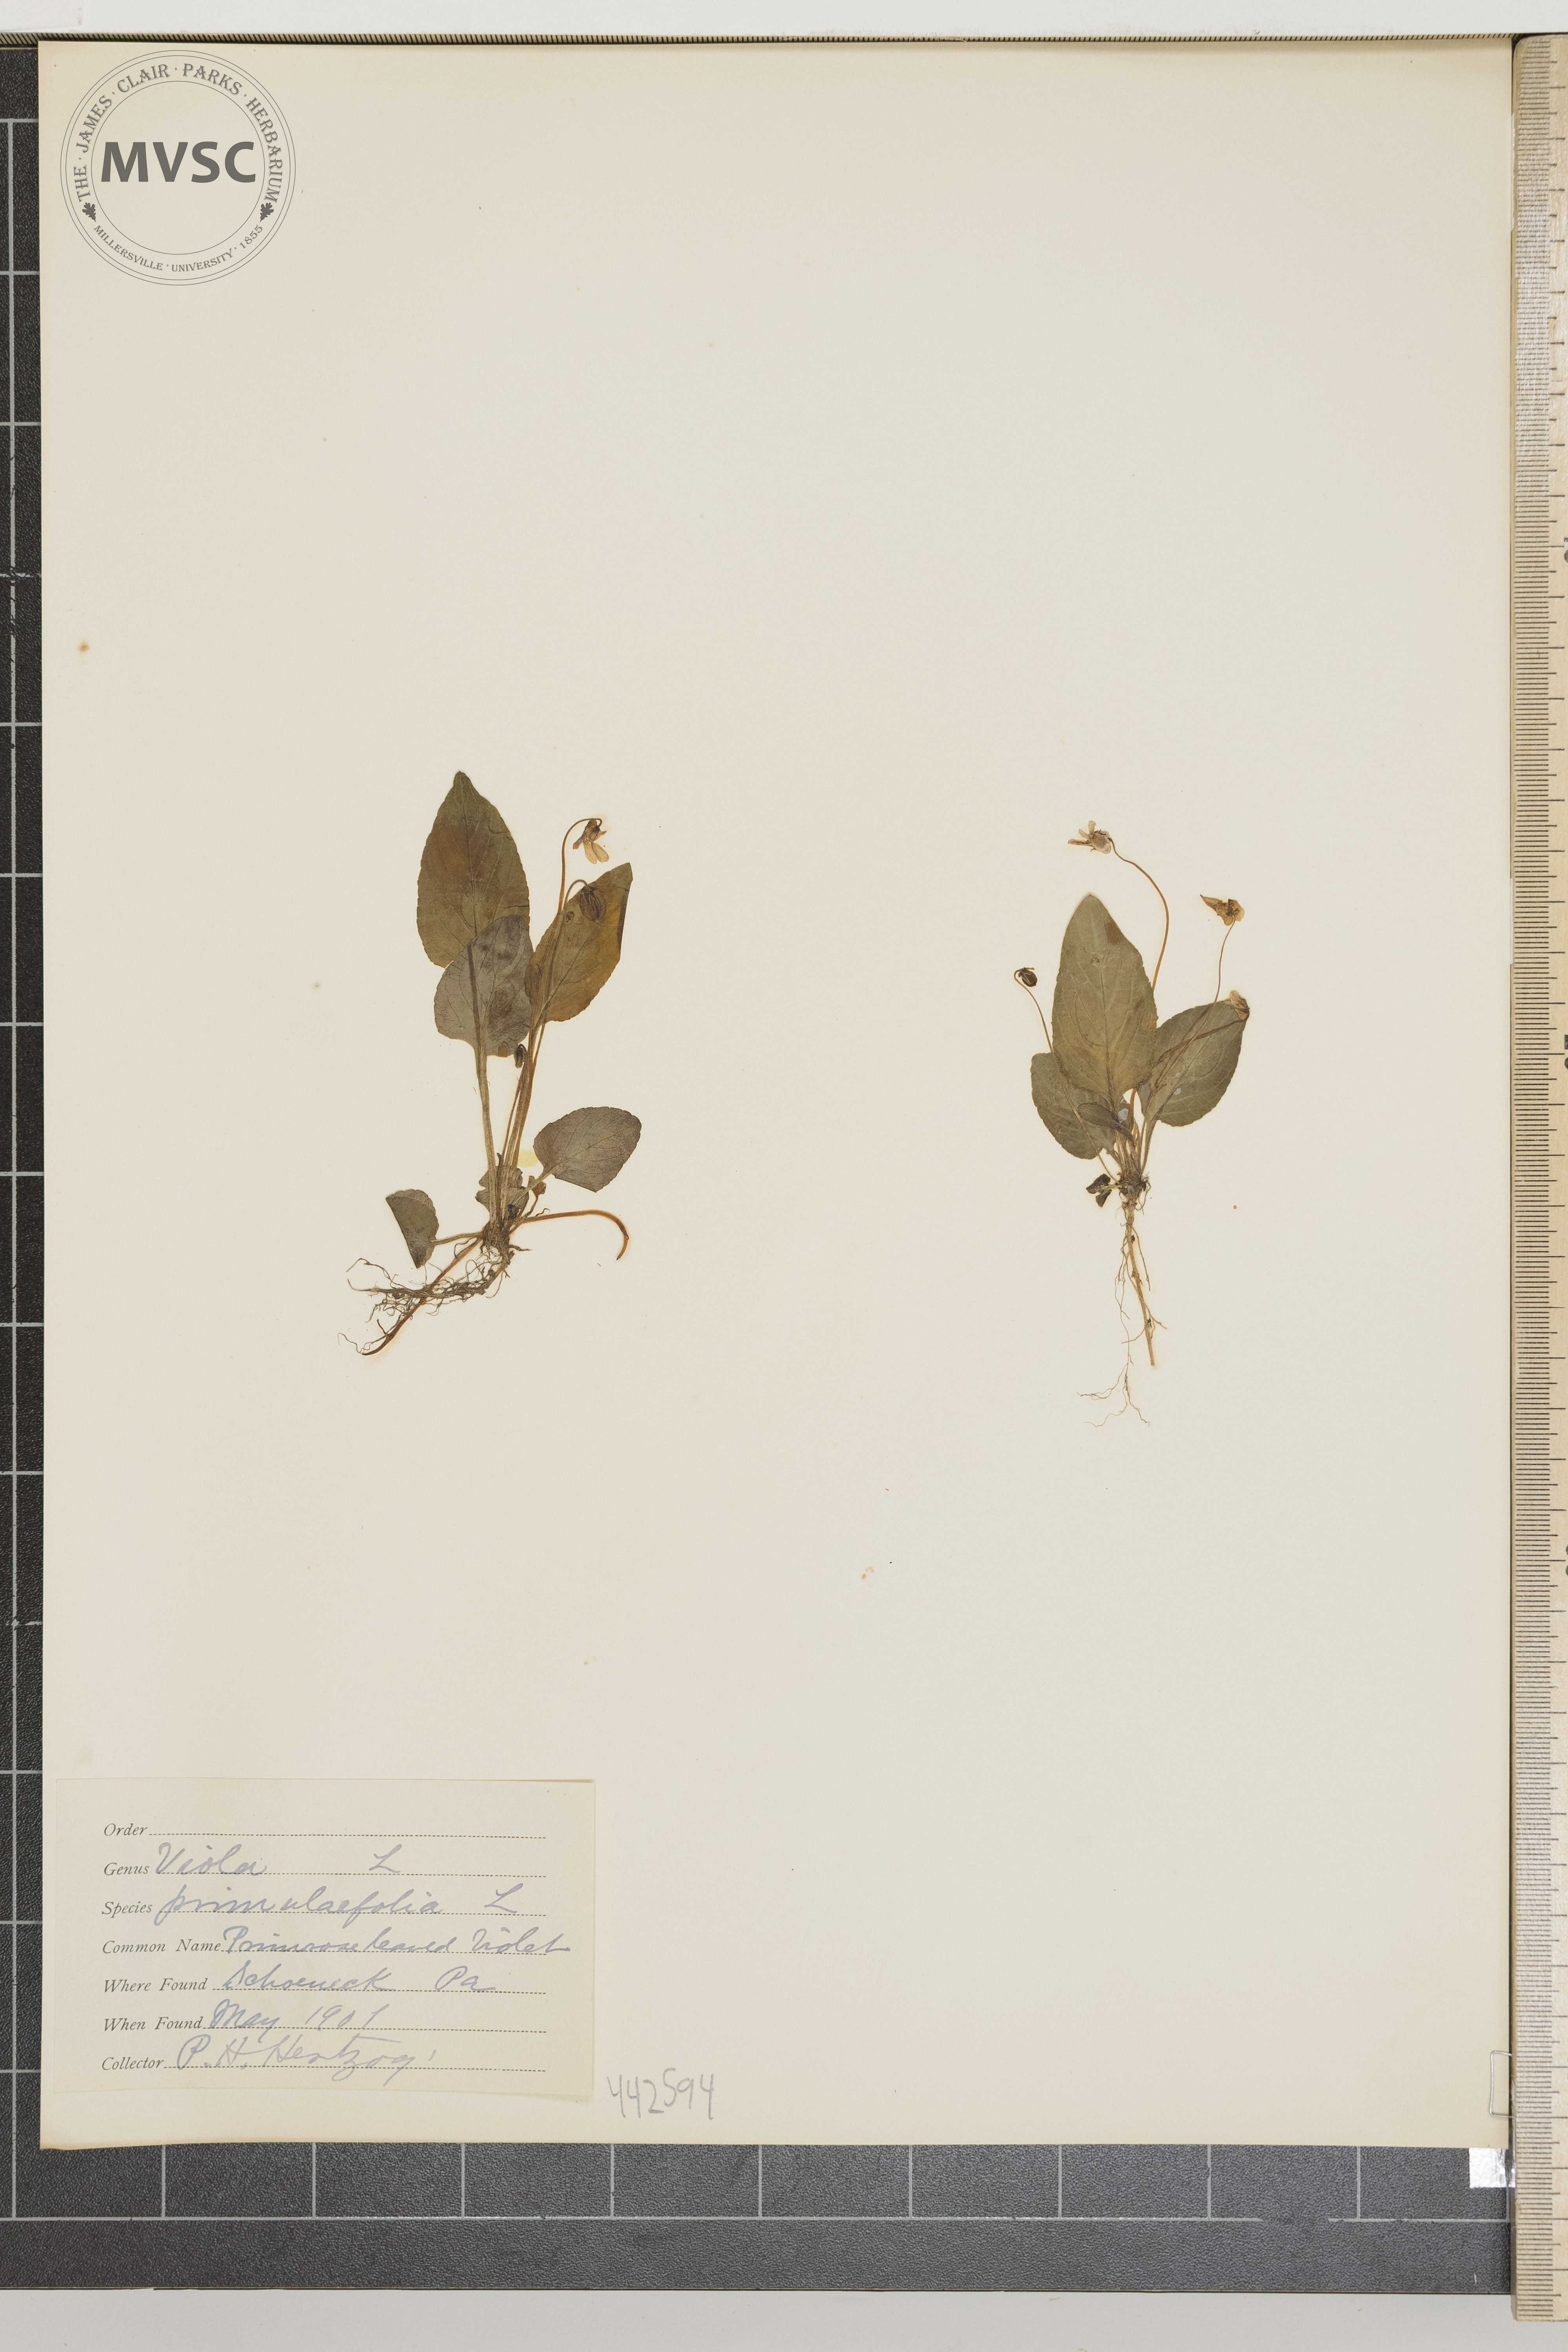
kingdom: Plantae
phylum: Tracheophyta
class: Magnoliopsida
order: Malpighiales
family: Violaceae
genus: Viola
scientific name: Viola primulifolia
